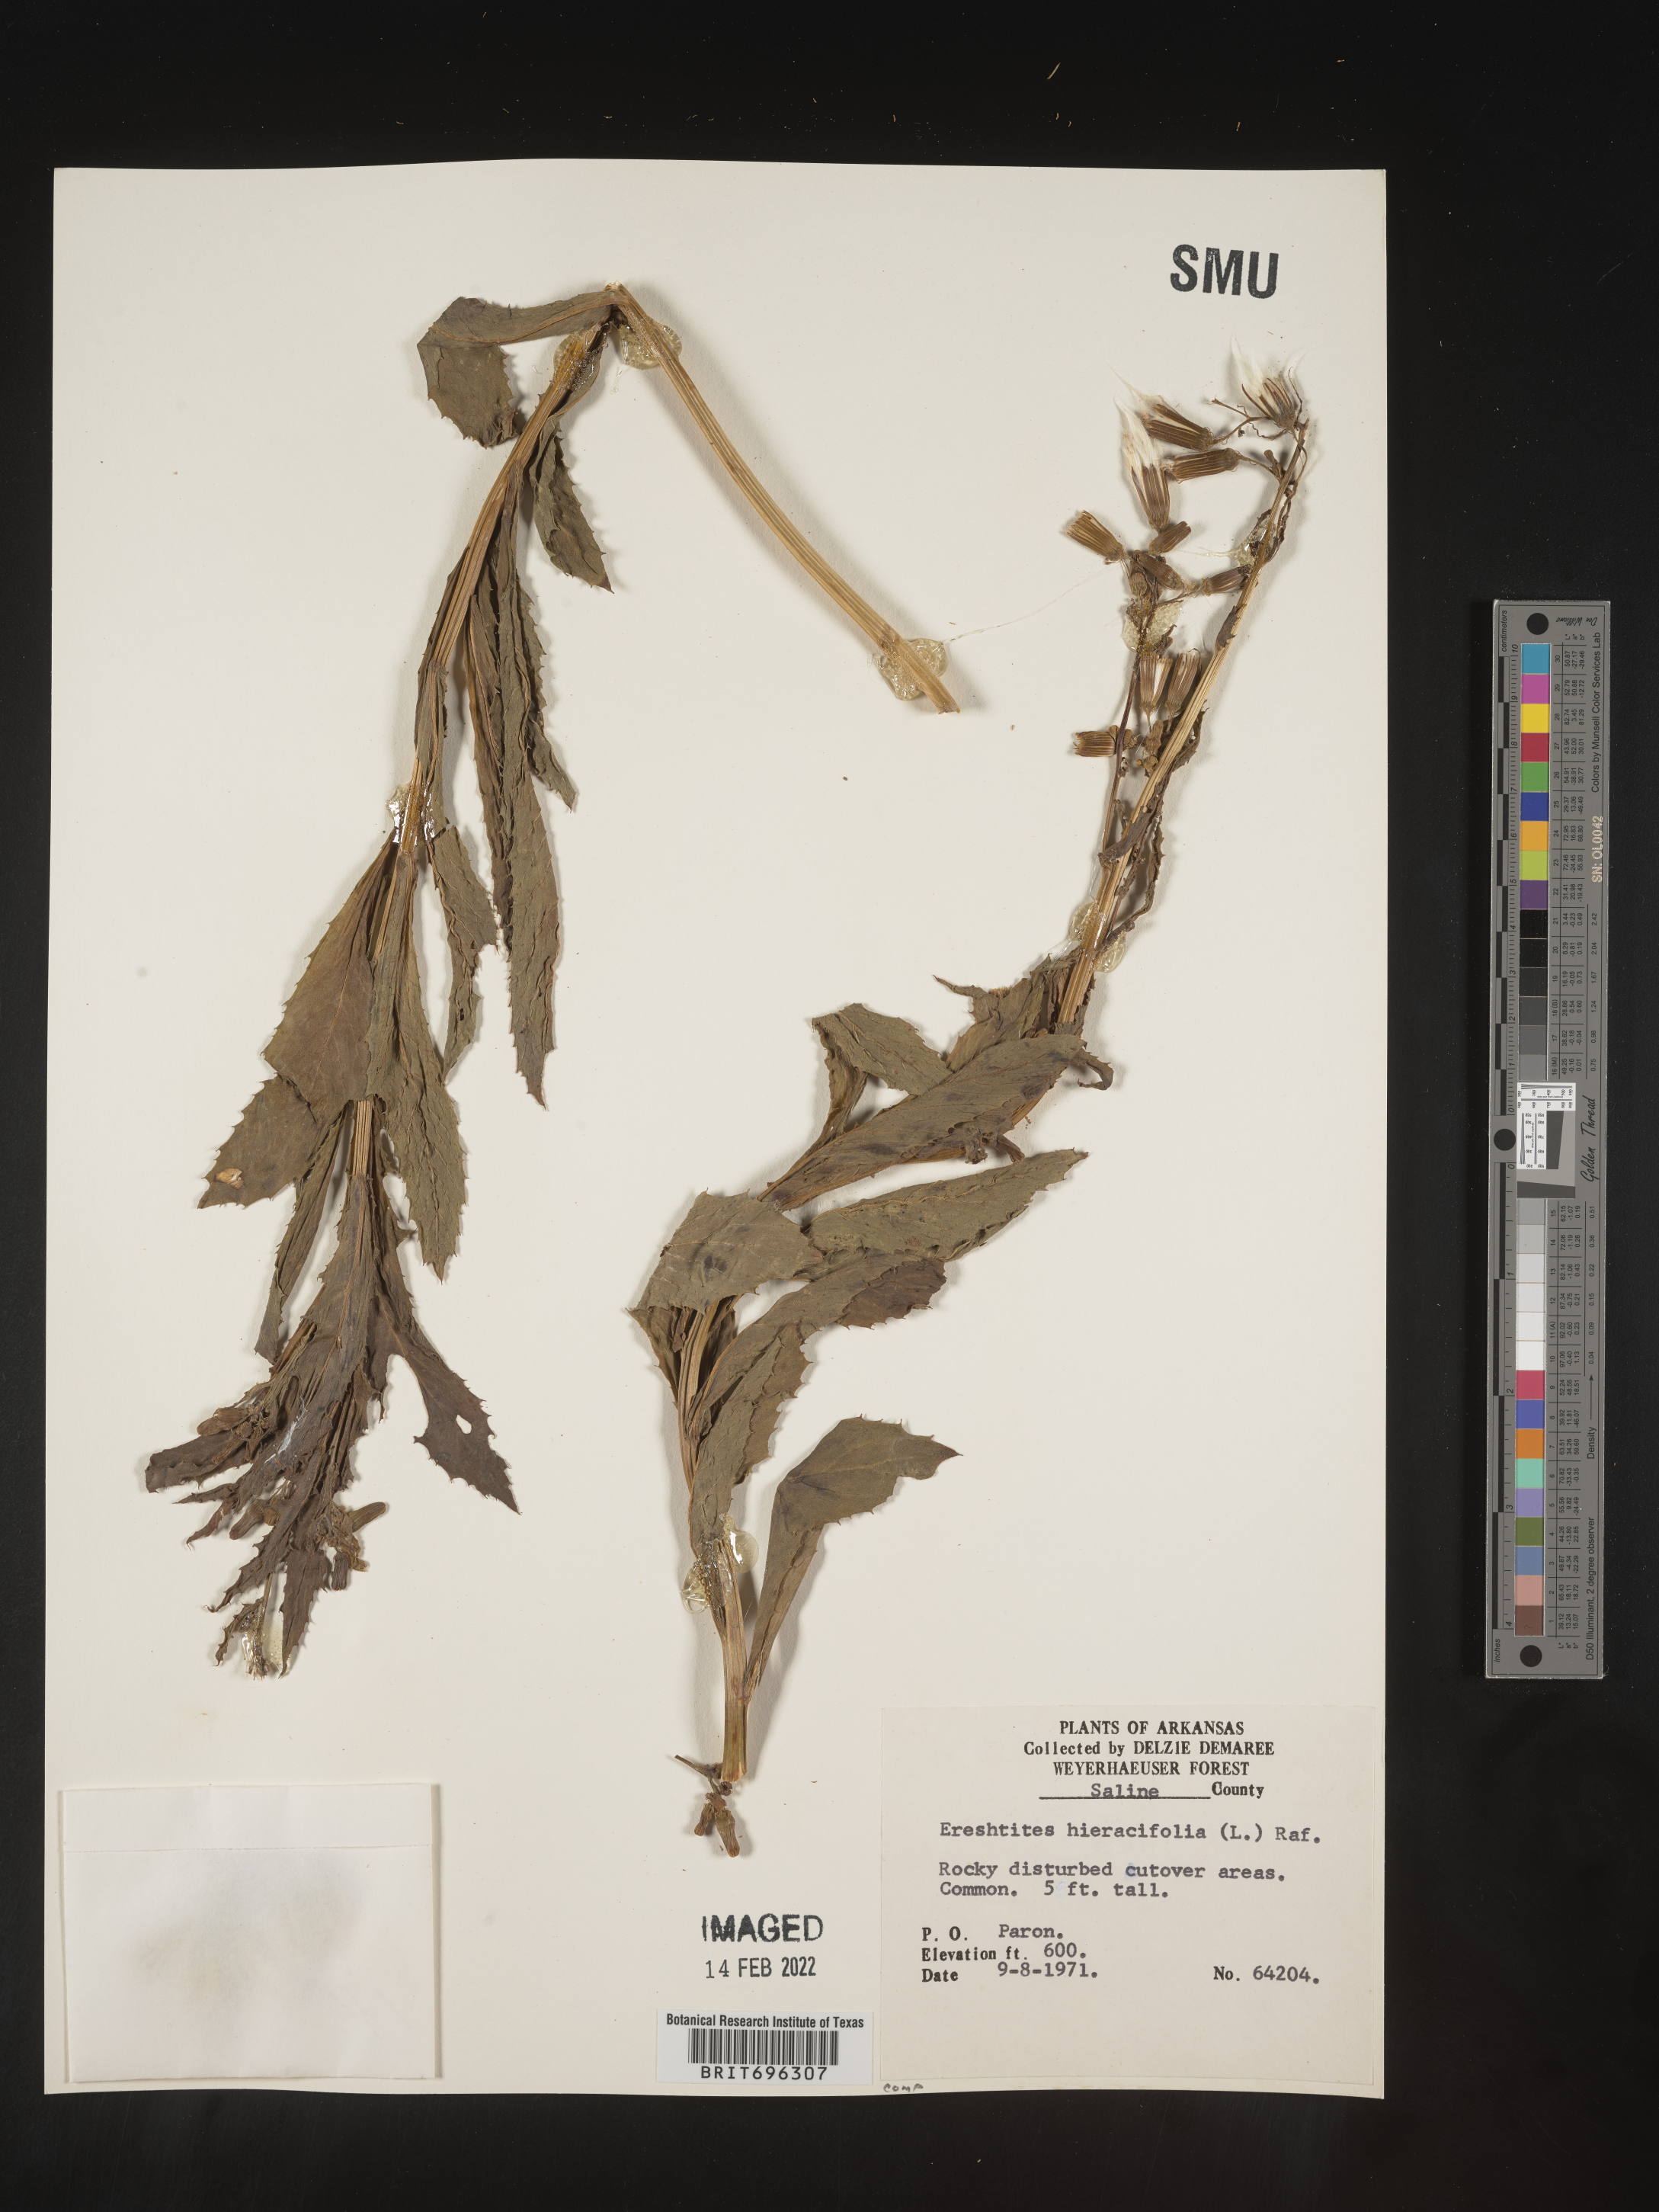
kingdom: Plantae
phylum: Tracheophyta
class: Magnoliopsida
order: Asterales
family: Asteraceae
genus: Erechtites
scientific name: Erechtites hieraciifolius
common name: American burnweed
